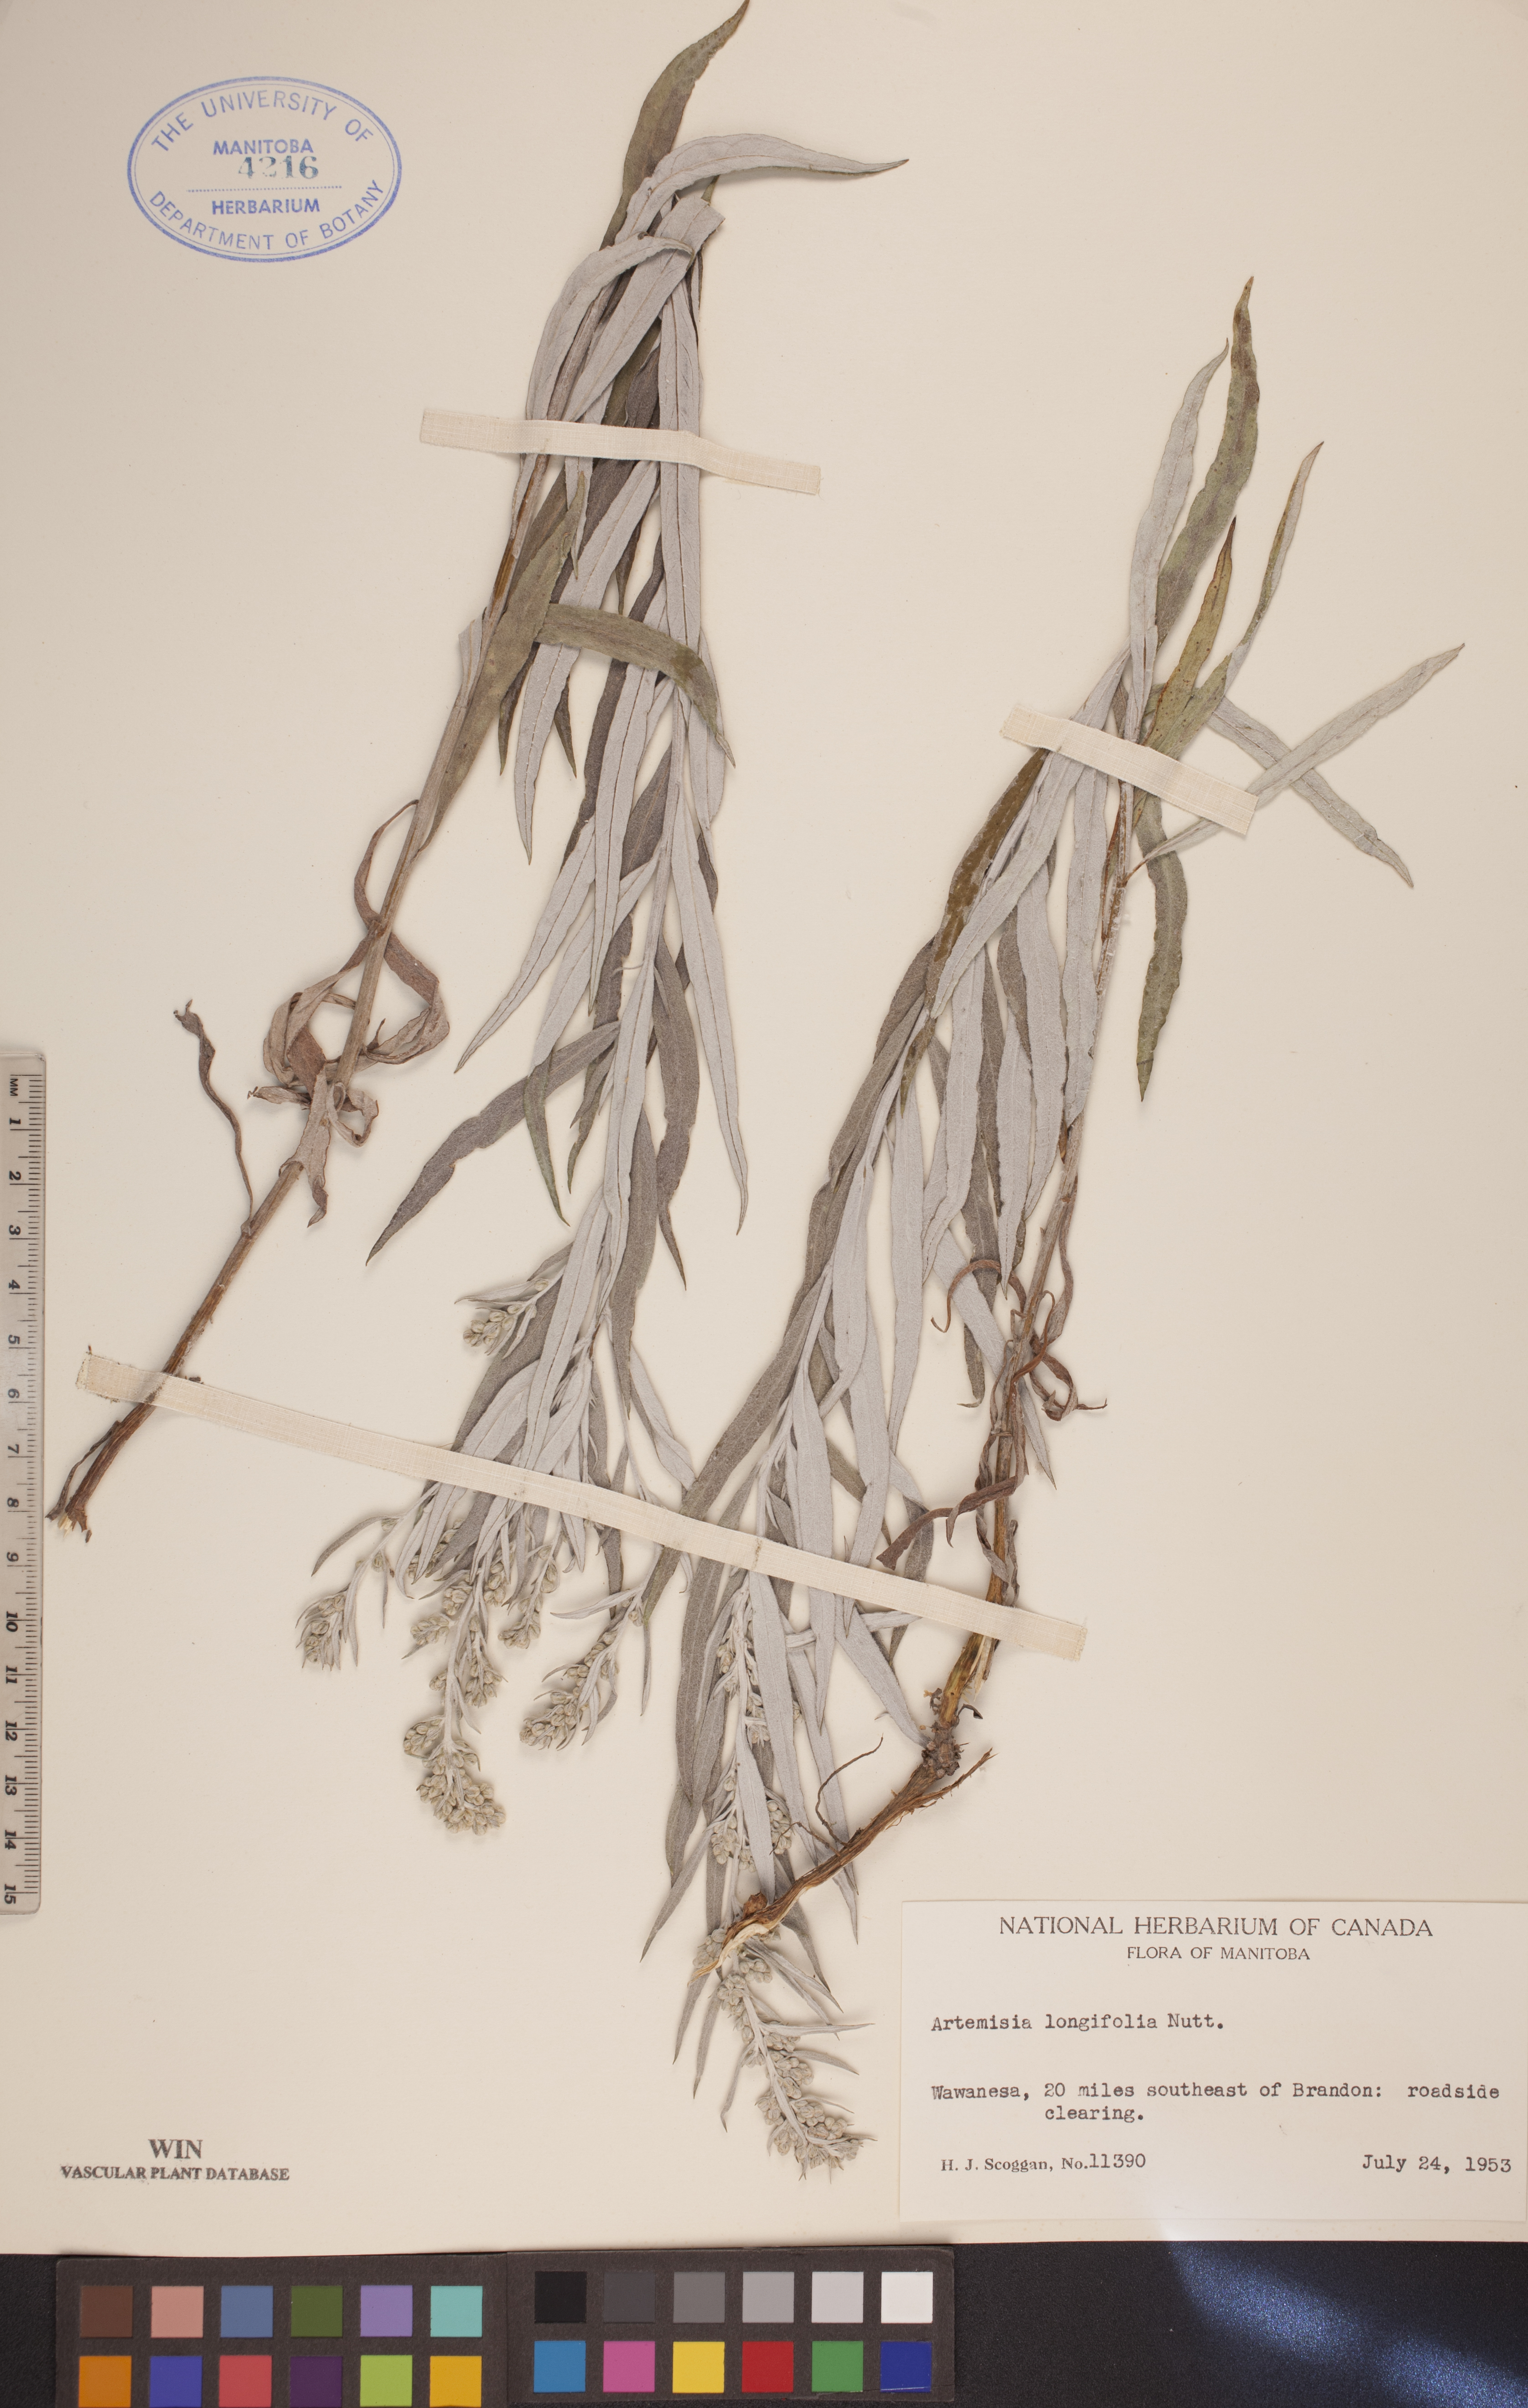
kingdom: Plantae
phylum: Tracheophyta
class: Magnoliopsida
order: Asterales
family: Asteraceae
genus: Artemisia
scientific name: Artemisia longifolia
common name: Long-leaved mugwort
